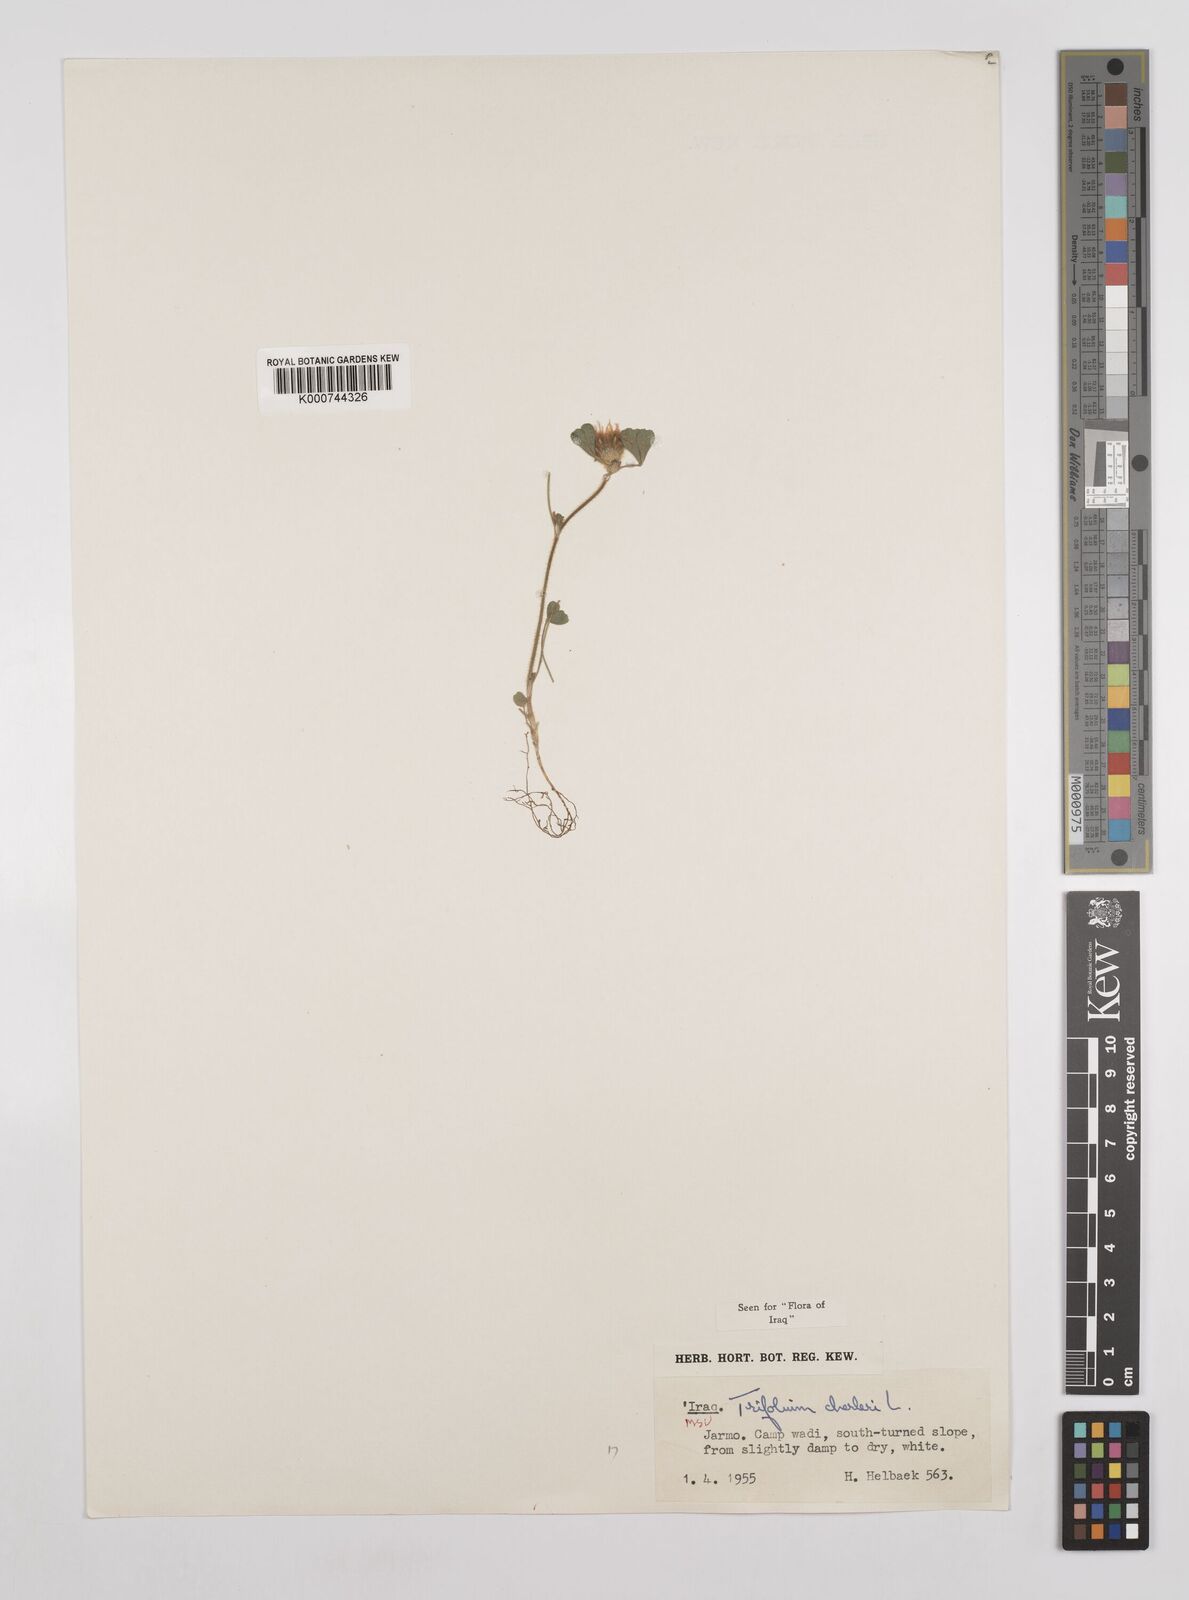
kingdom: Plantae
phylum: Tracheophyta
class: Magnoliopsida
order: Fabales
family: Fabaceae
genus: Trifolium
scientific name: Trifolium cherleri
